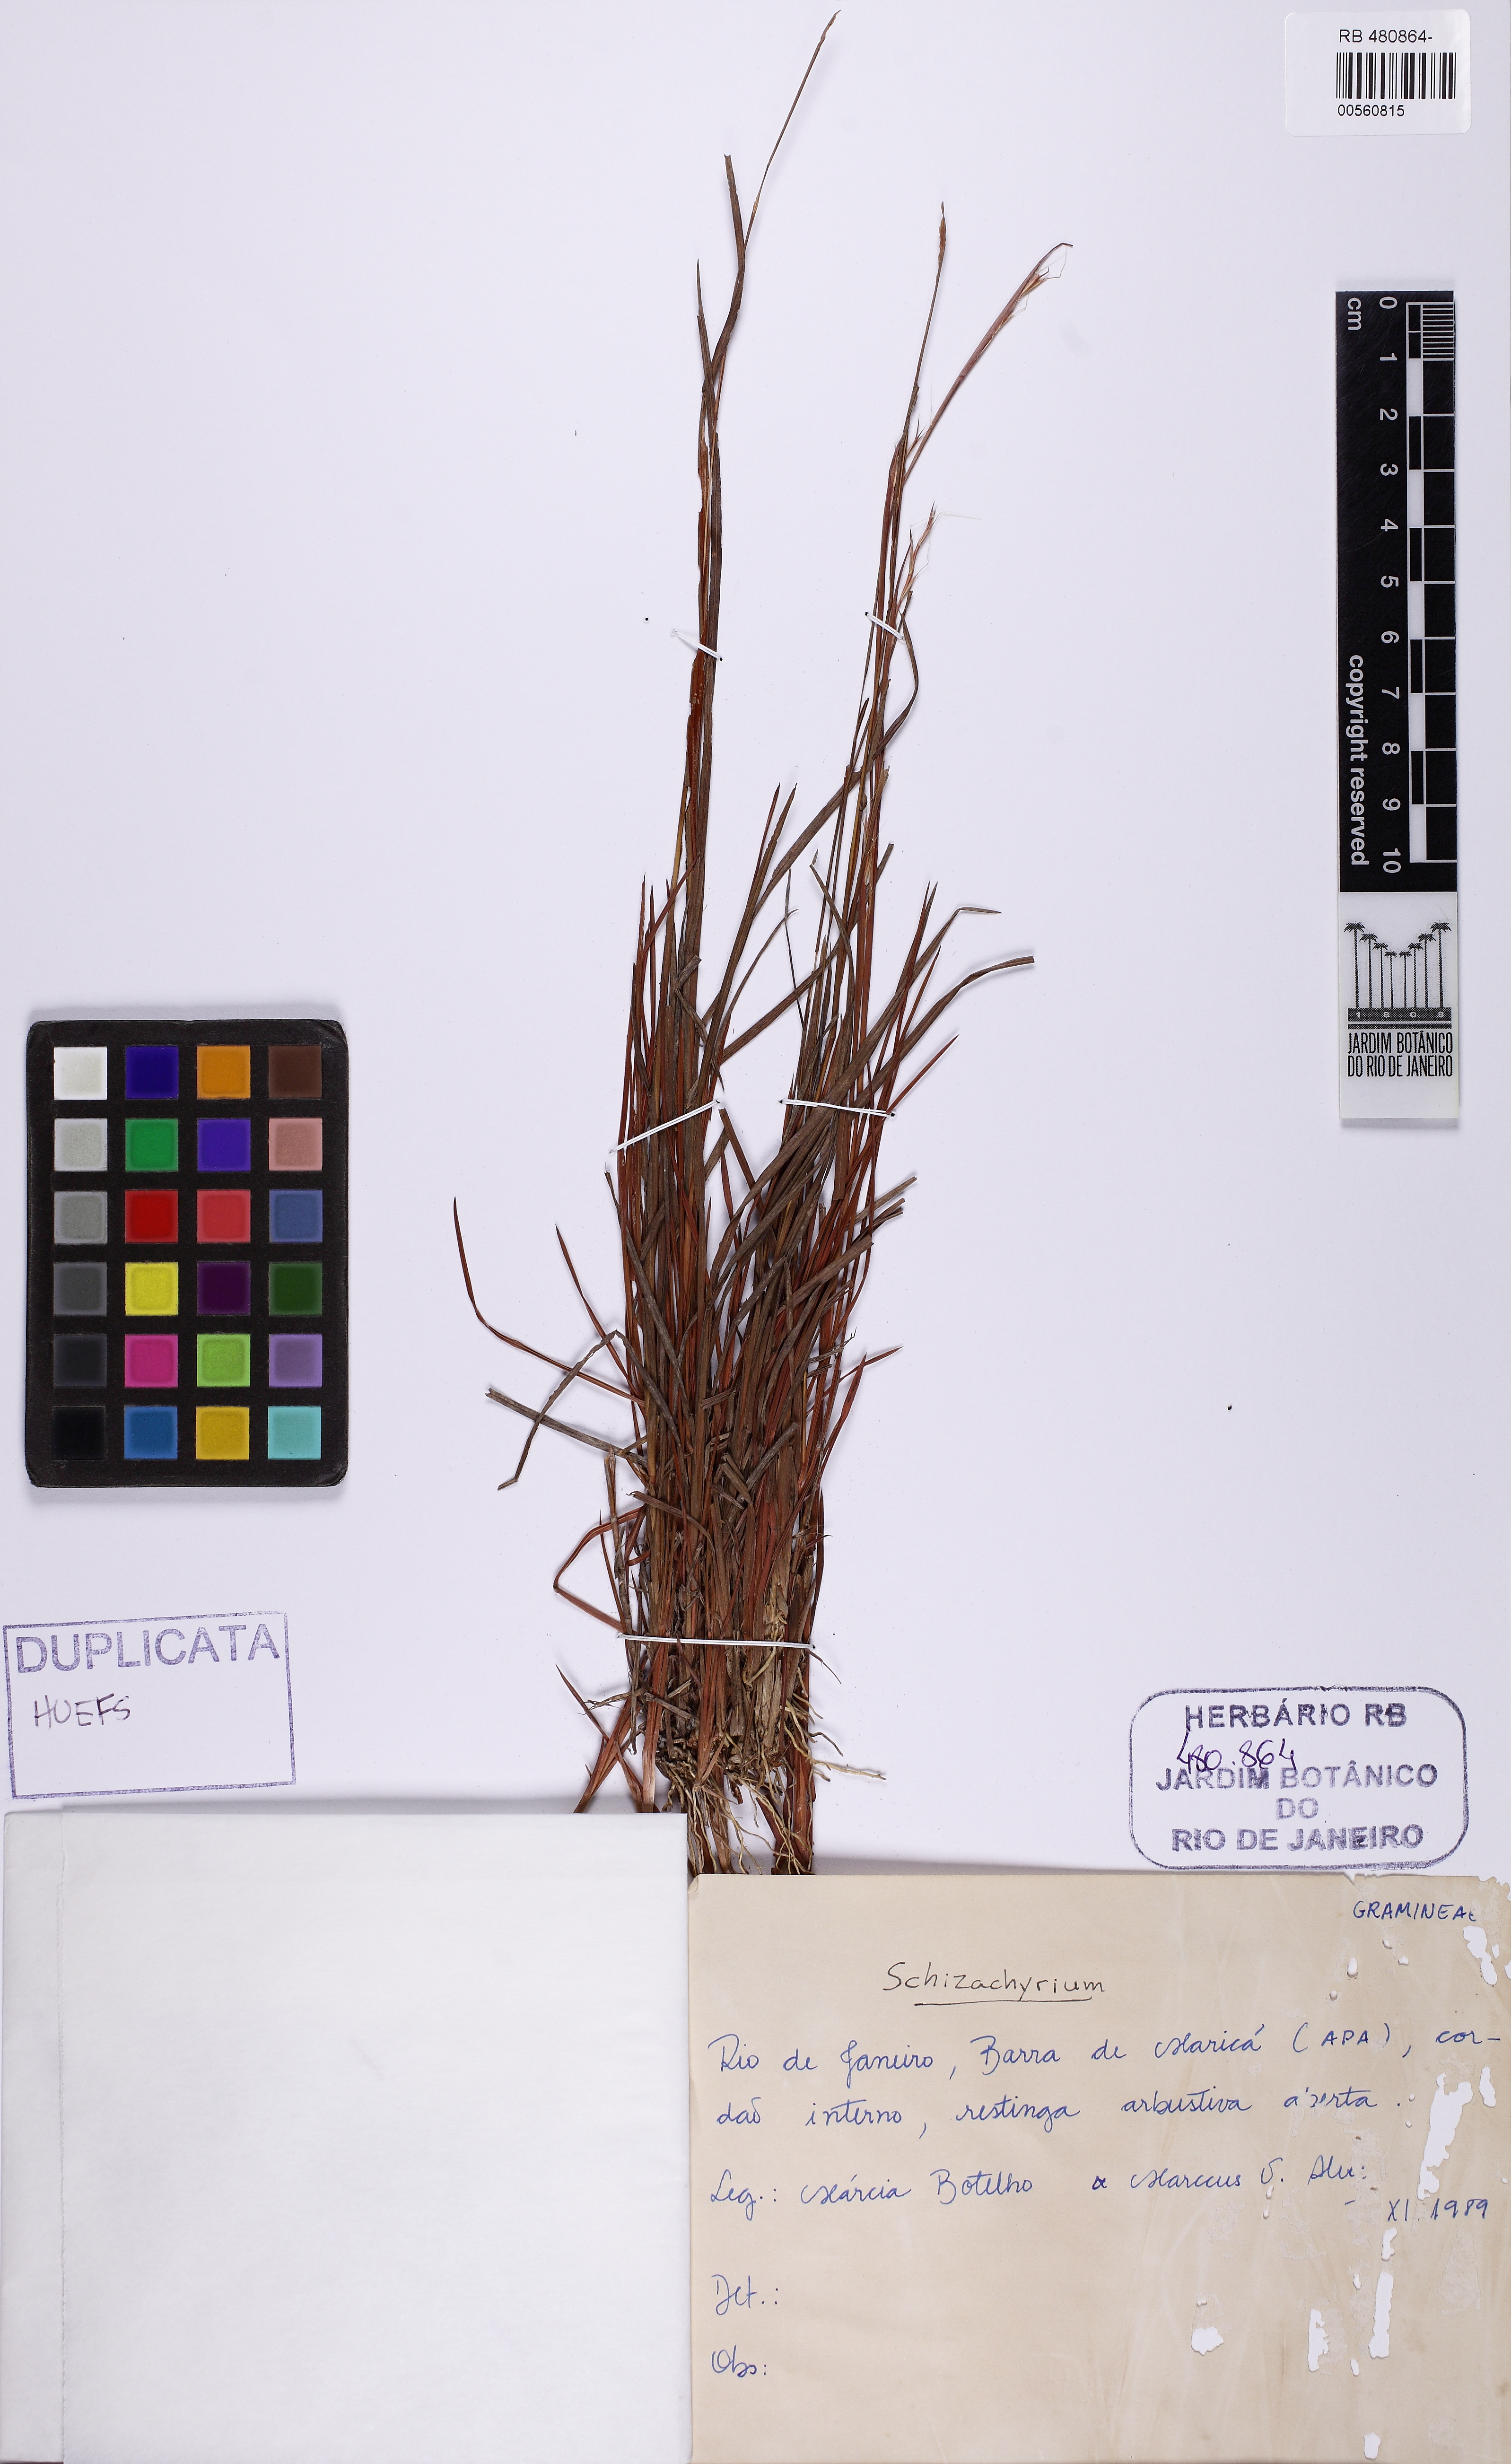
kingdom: Plantae
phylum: Tracheophyta
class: Liliopsida
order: Poales
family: Poaceae
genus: Schizachyrium
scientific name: Schizachyrium
